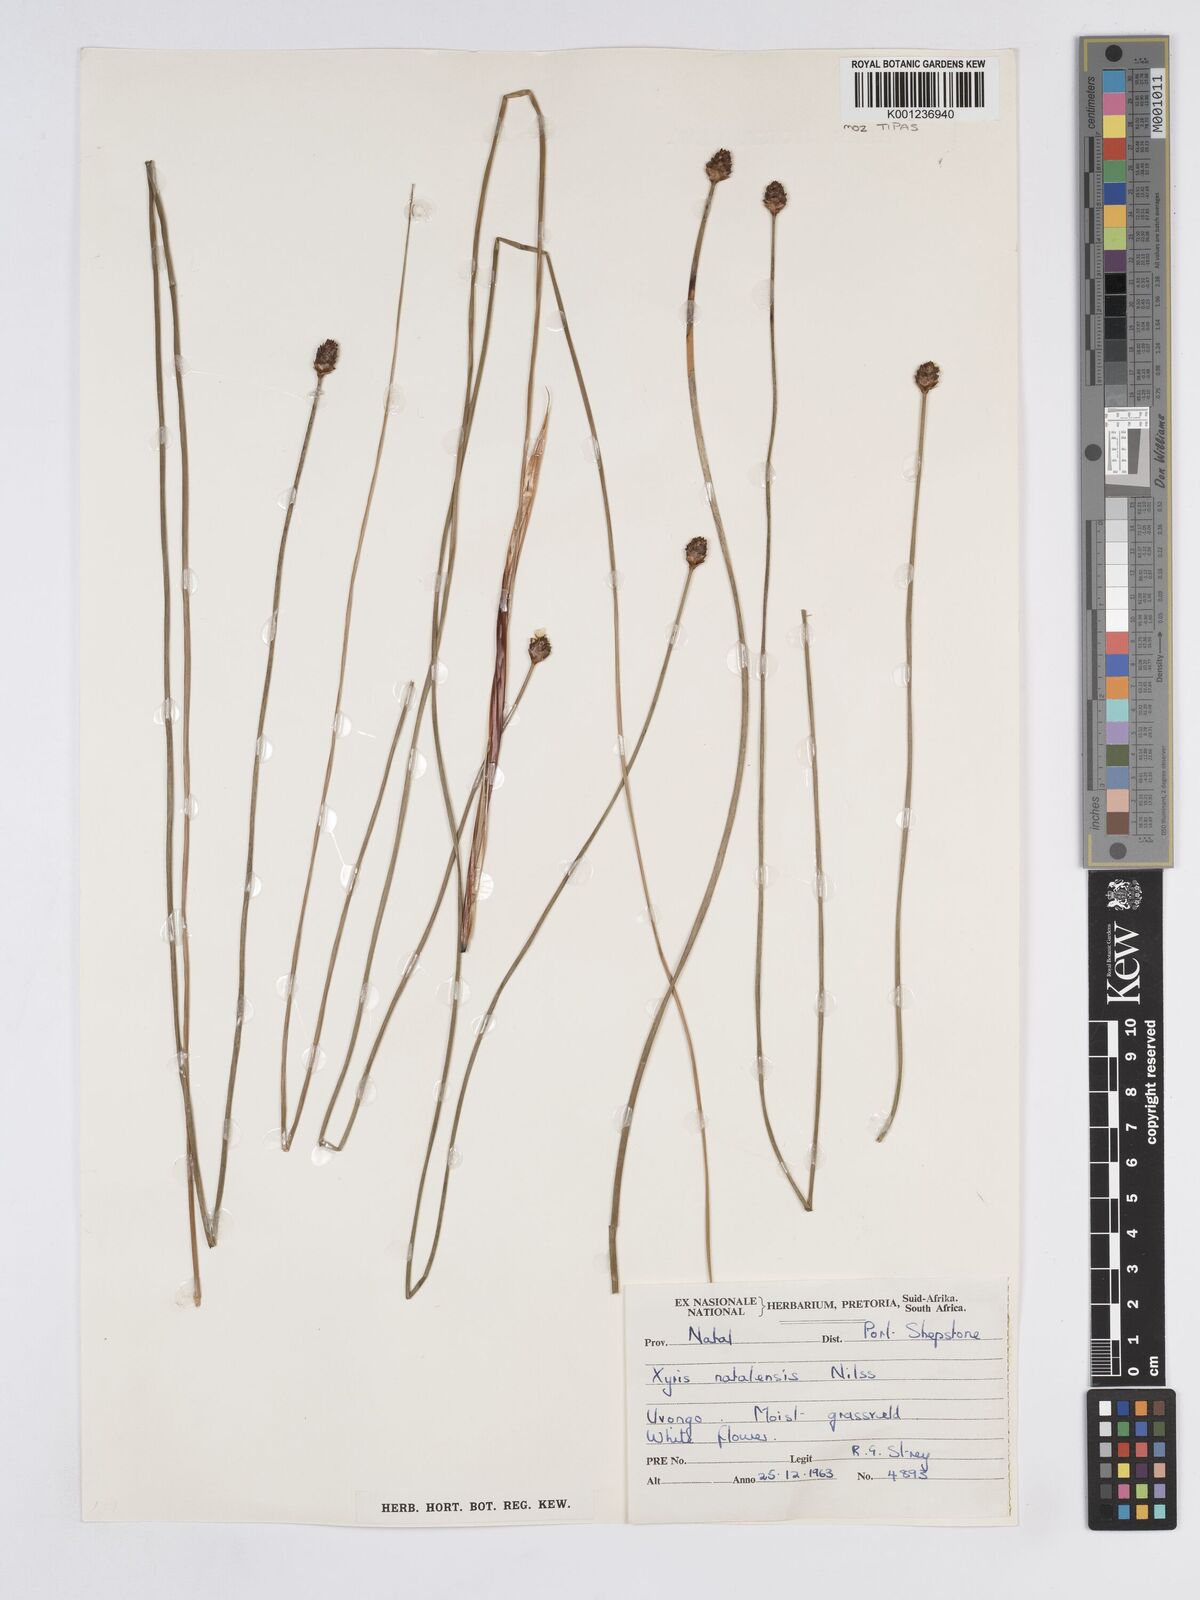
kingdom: Plantae
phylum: Tracheophyta
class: Liliopsida
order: Poales
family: Xyridaceae
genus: Xyris
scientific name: Xyris natalensis
